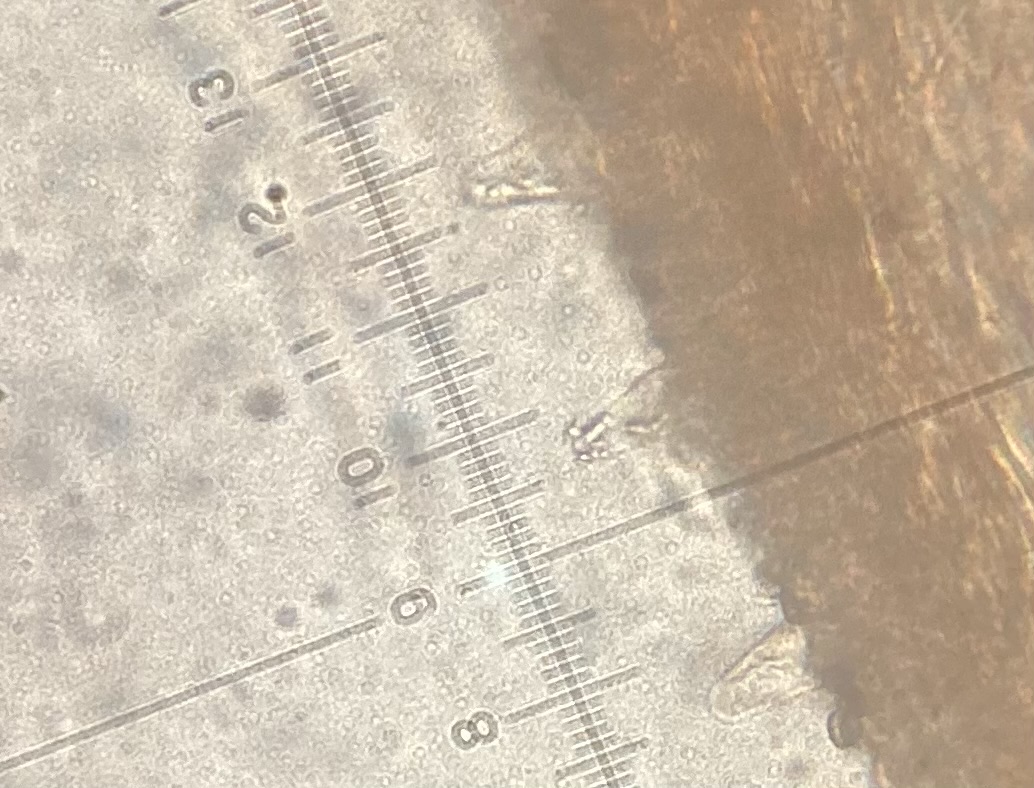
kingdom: Fungi
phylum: Basidiomycota
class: Agaricomycetes
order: Agaricales
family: Psathyrellaceae
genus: Psathyrella
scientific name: Psathyrella
